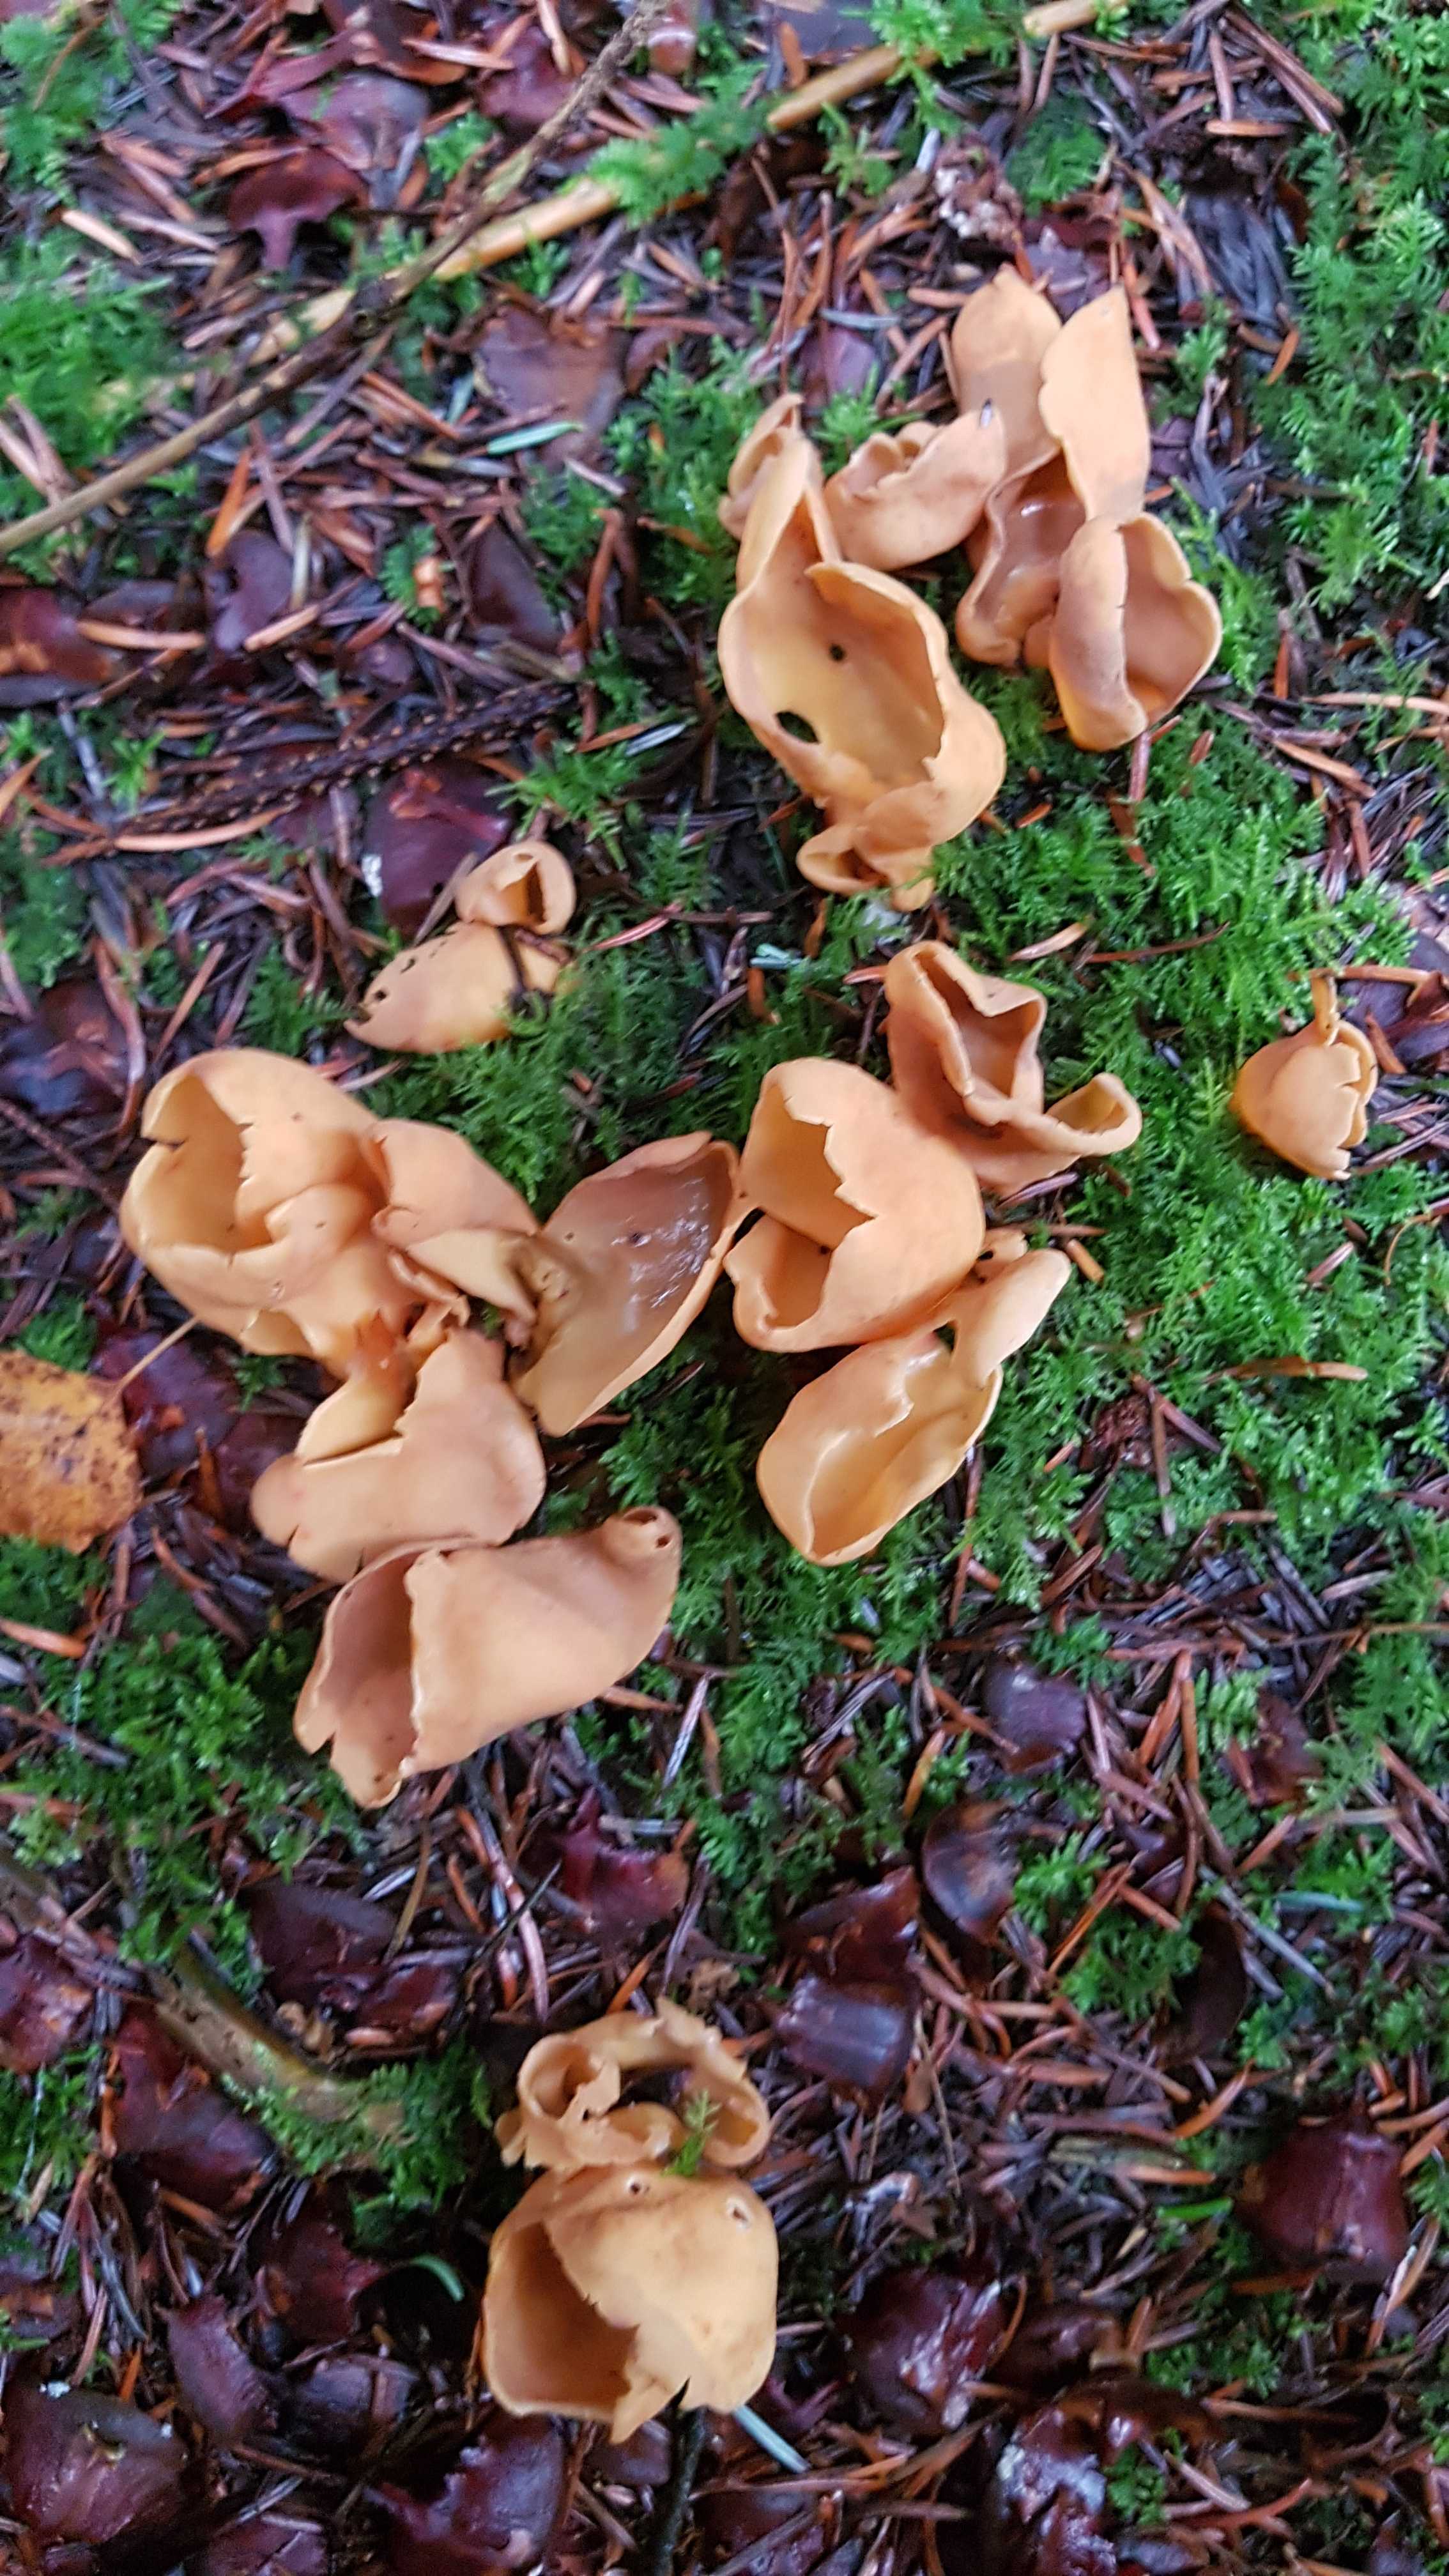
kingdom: Fungi
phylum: Ascomycota
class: Pezizomycetes
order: Pezizales
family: Otideaceae
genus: Otidea
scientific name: Otidea onotica
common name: æsel-ørebæger
